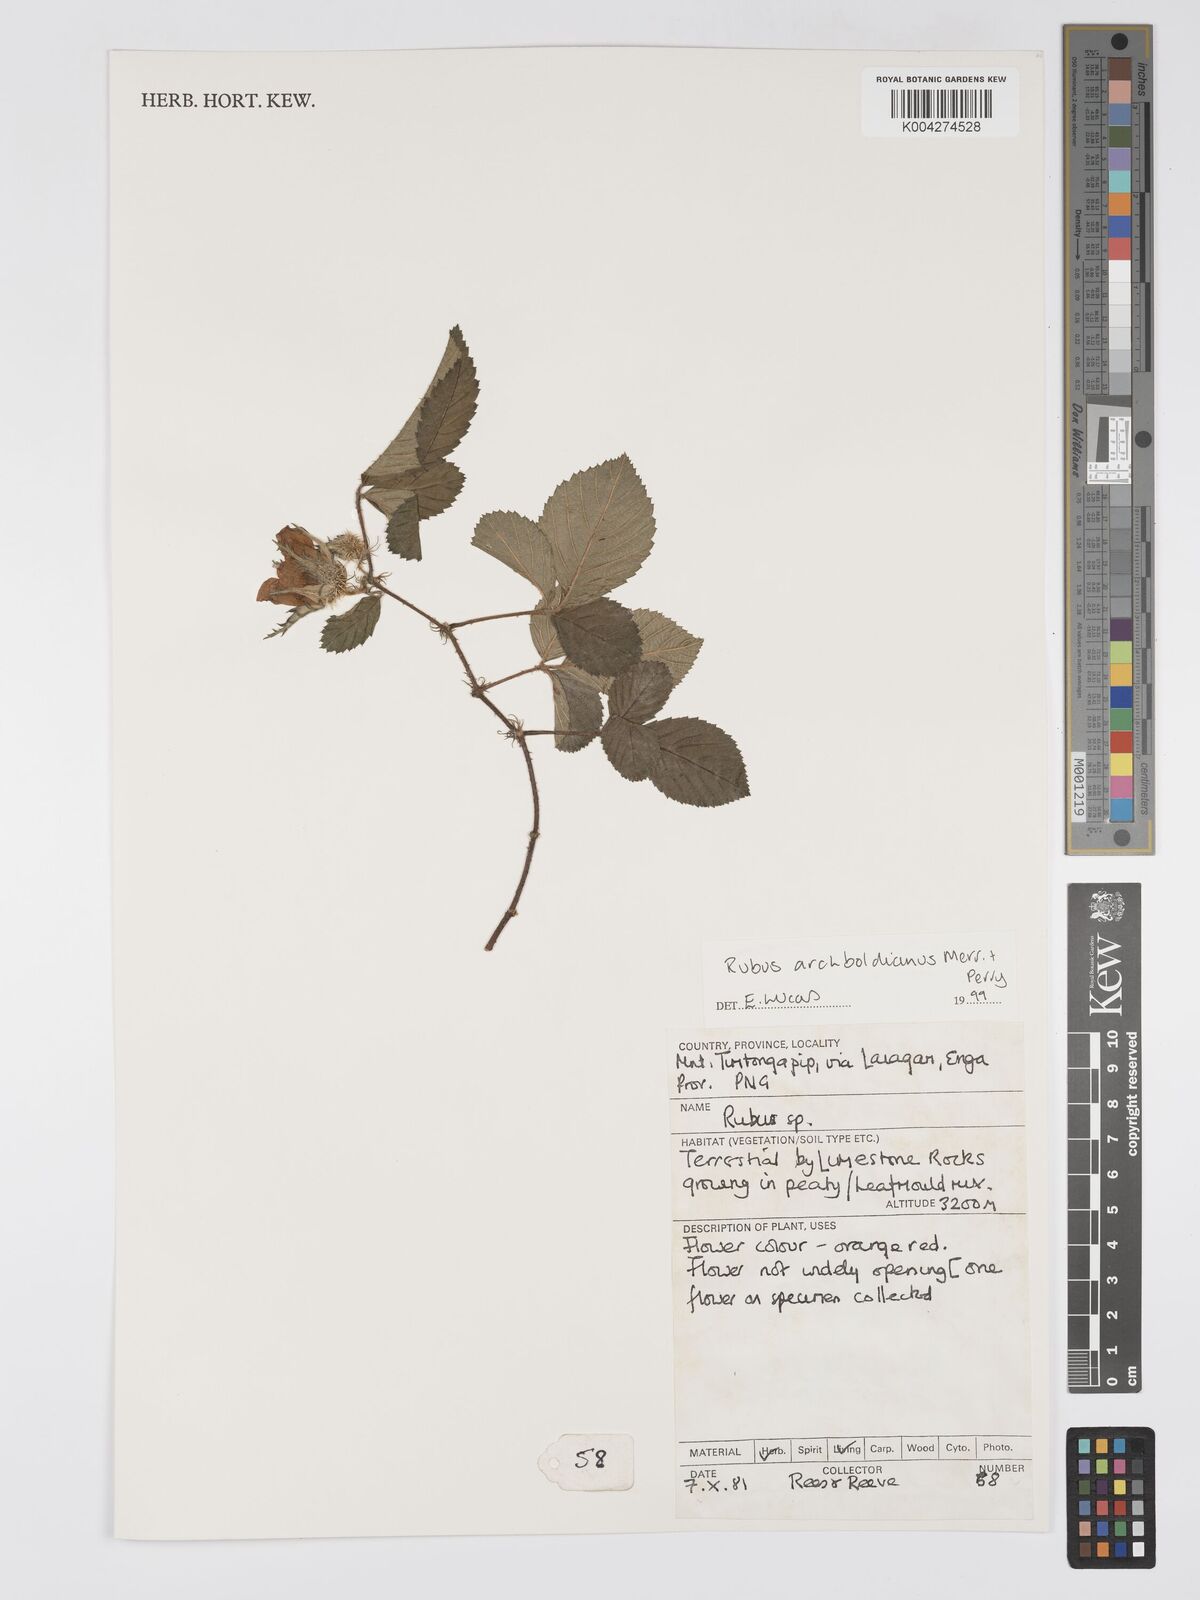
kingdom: Plantae
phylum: Tracheophyta
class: Magnoliopsida
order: Rosales
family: Rosaceae
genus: Rubus
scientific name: Rubus archboldianus
